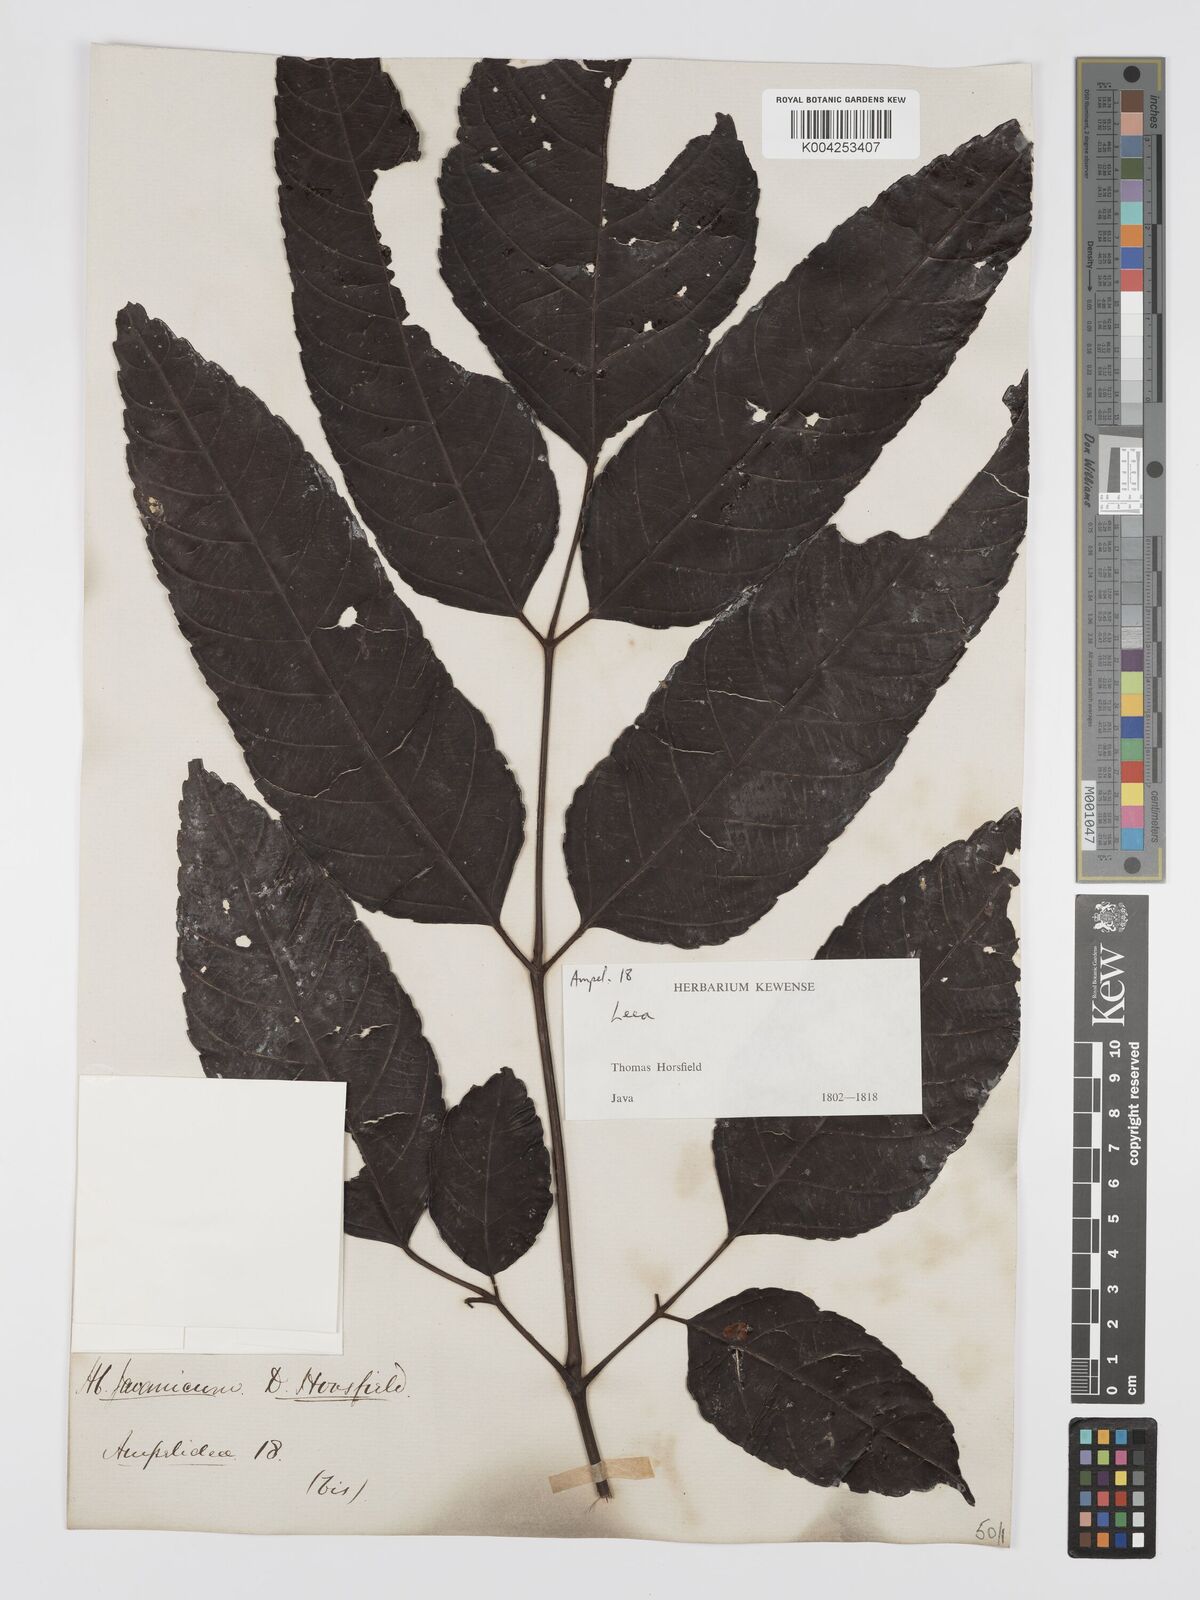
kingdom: Plantae
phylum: Tracheophyta
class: Magnoliopsida
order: Vitales
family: Vitaceae
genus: Leea
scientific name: Leea amabilis
